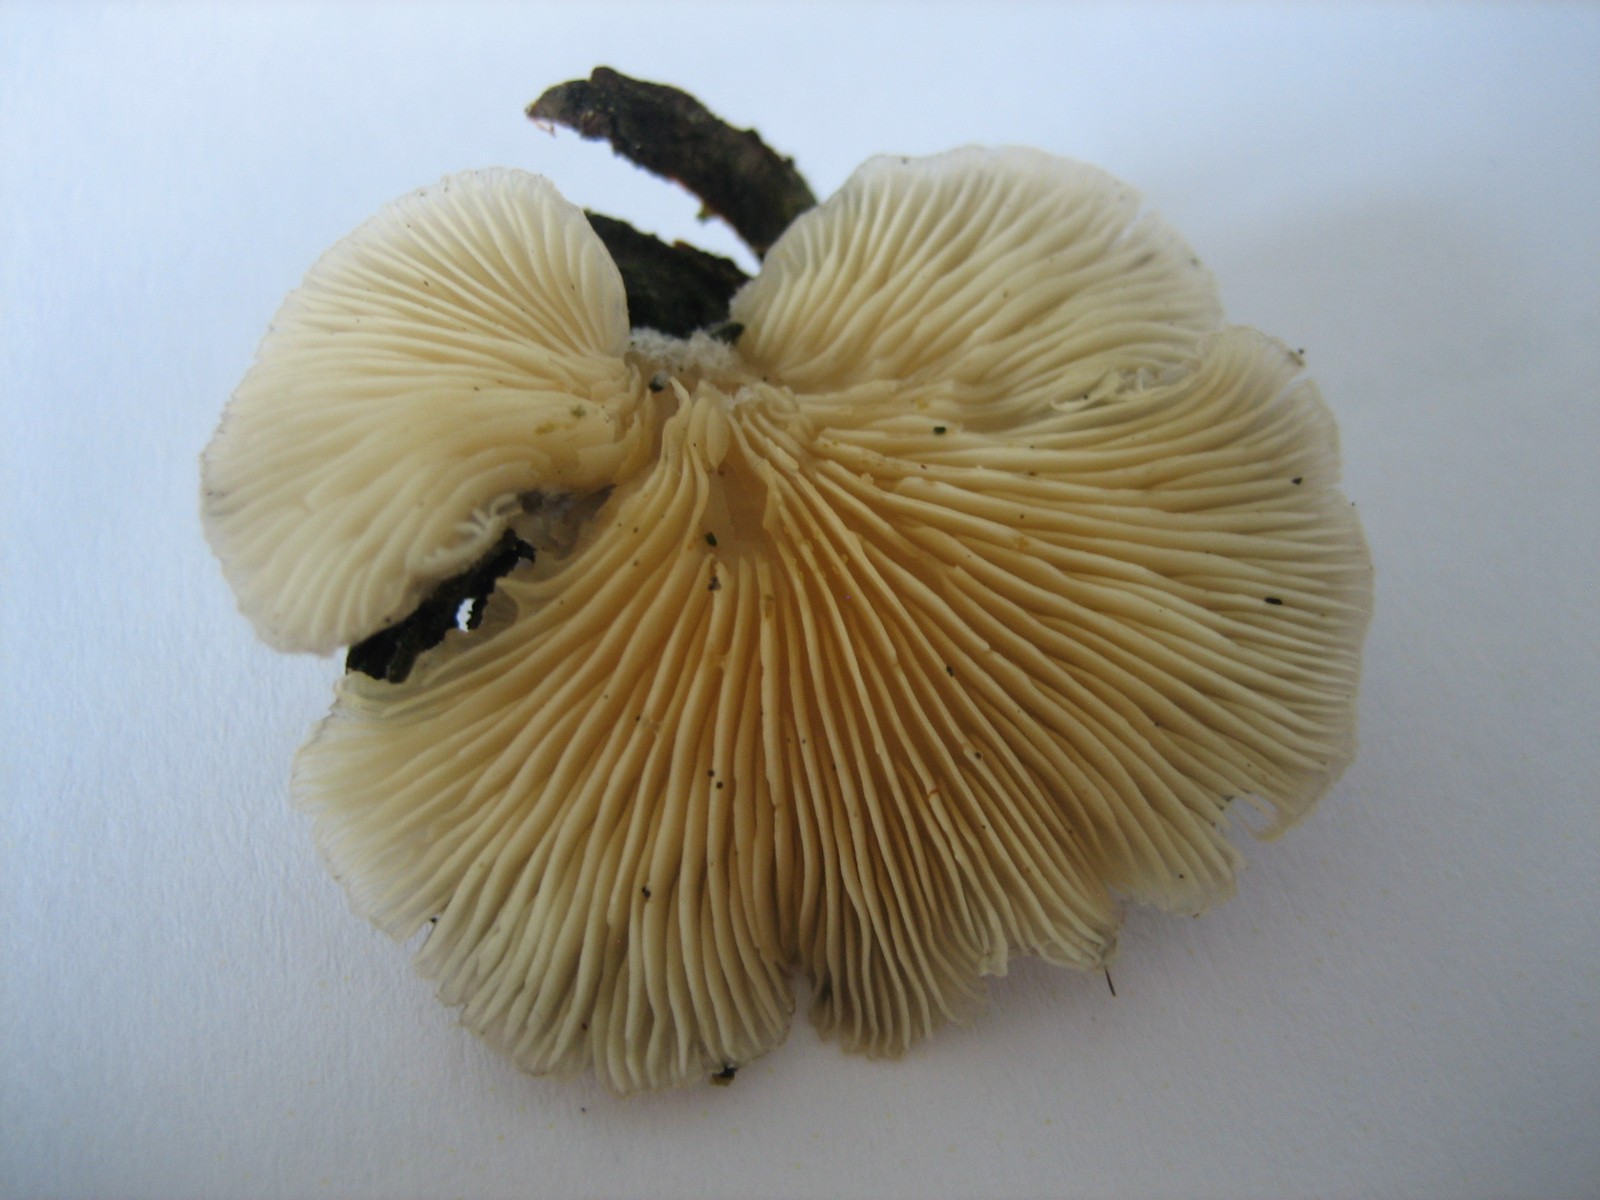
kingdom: Fungi
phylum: Basidiomycota
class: Agaricomycetes
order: Agaricales
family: Pleurotaceae
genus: Hohenbuehelia
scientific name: Hohenbuehelia mastrucata
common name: skællet filthat
